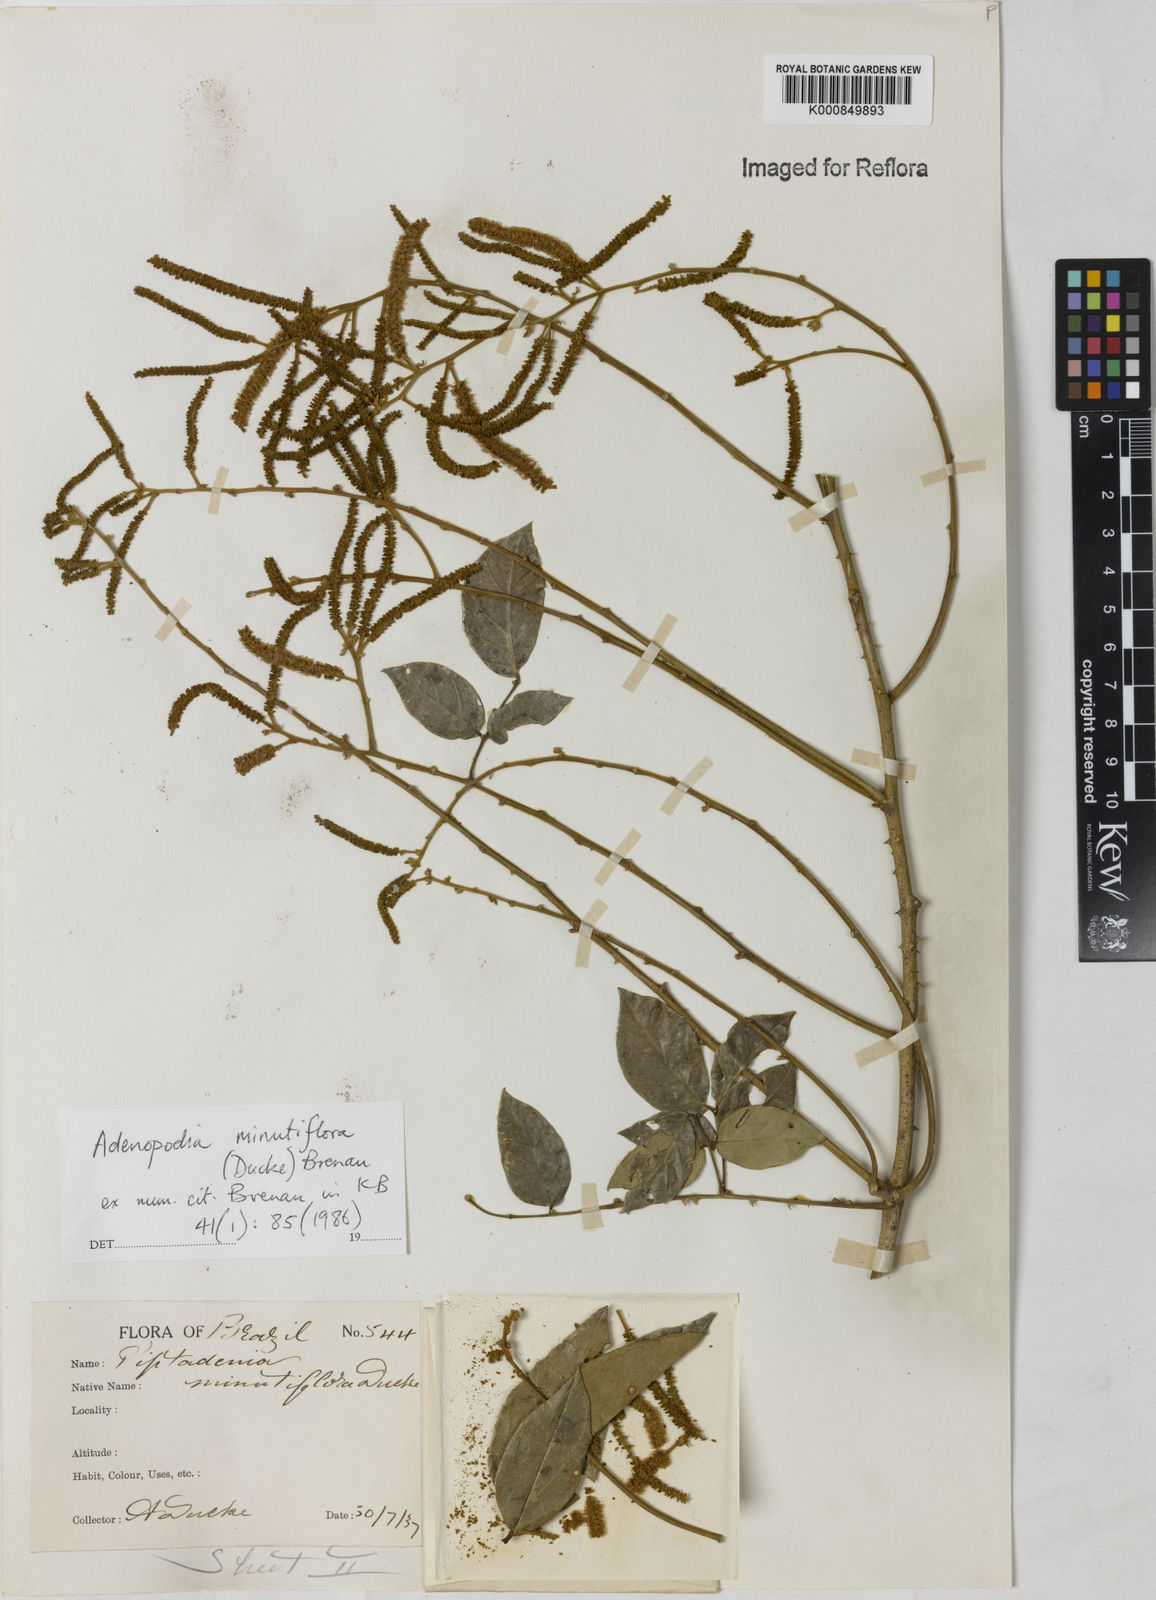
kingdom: Plantae
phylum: Tracheophyta
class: Magnoliopsida
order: Fabales
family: Fabaceae
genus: Piptadenia
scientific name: Piptadenia minutiflora
